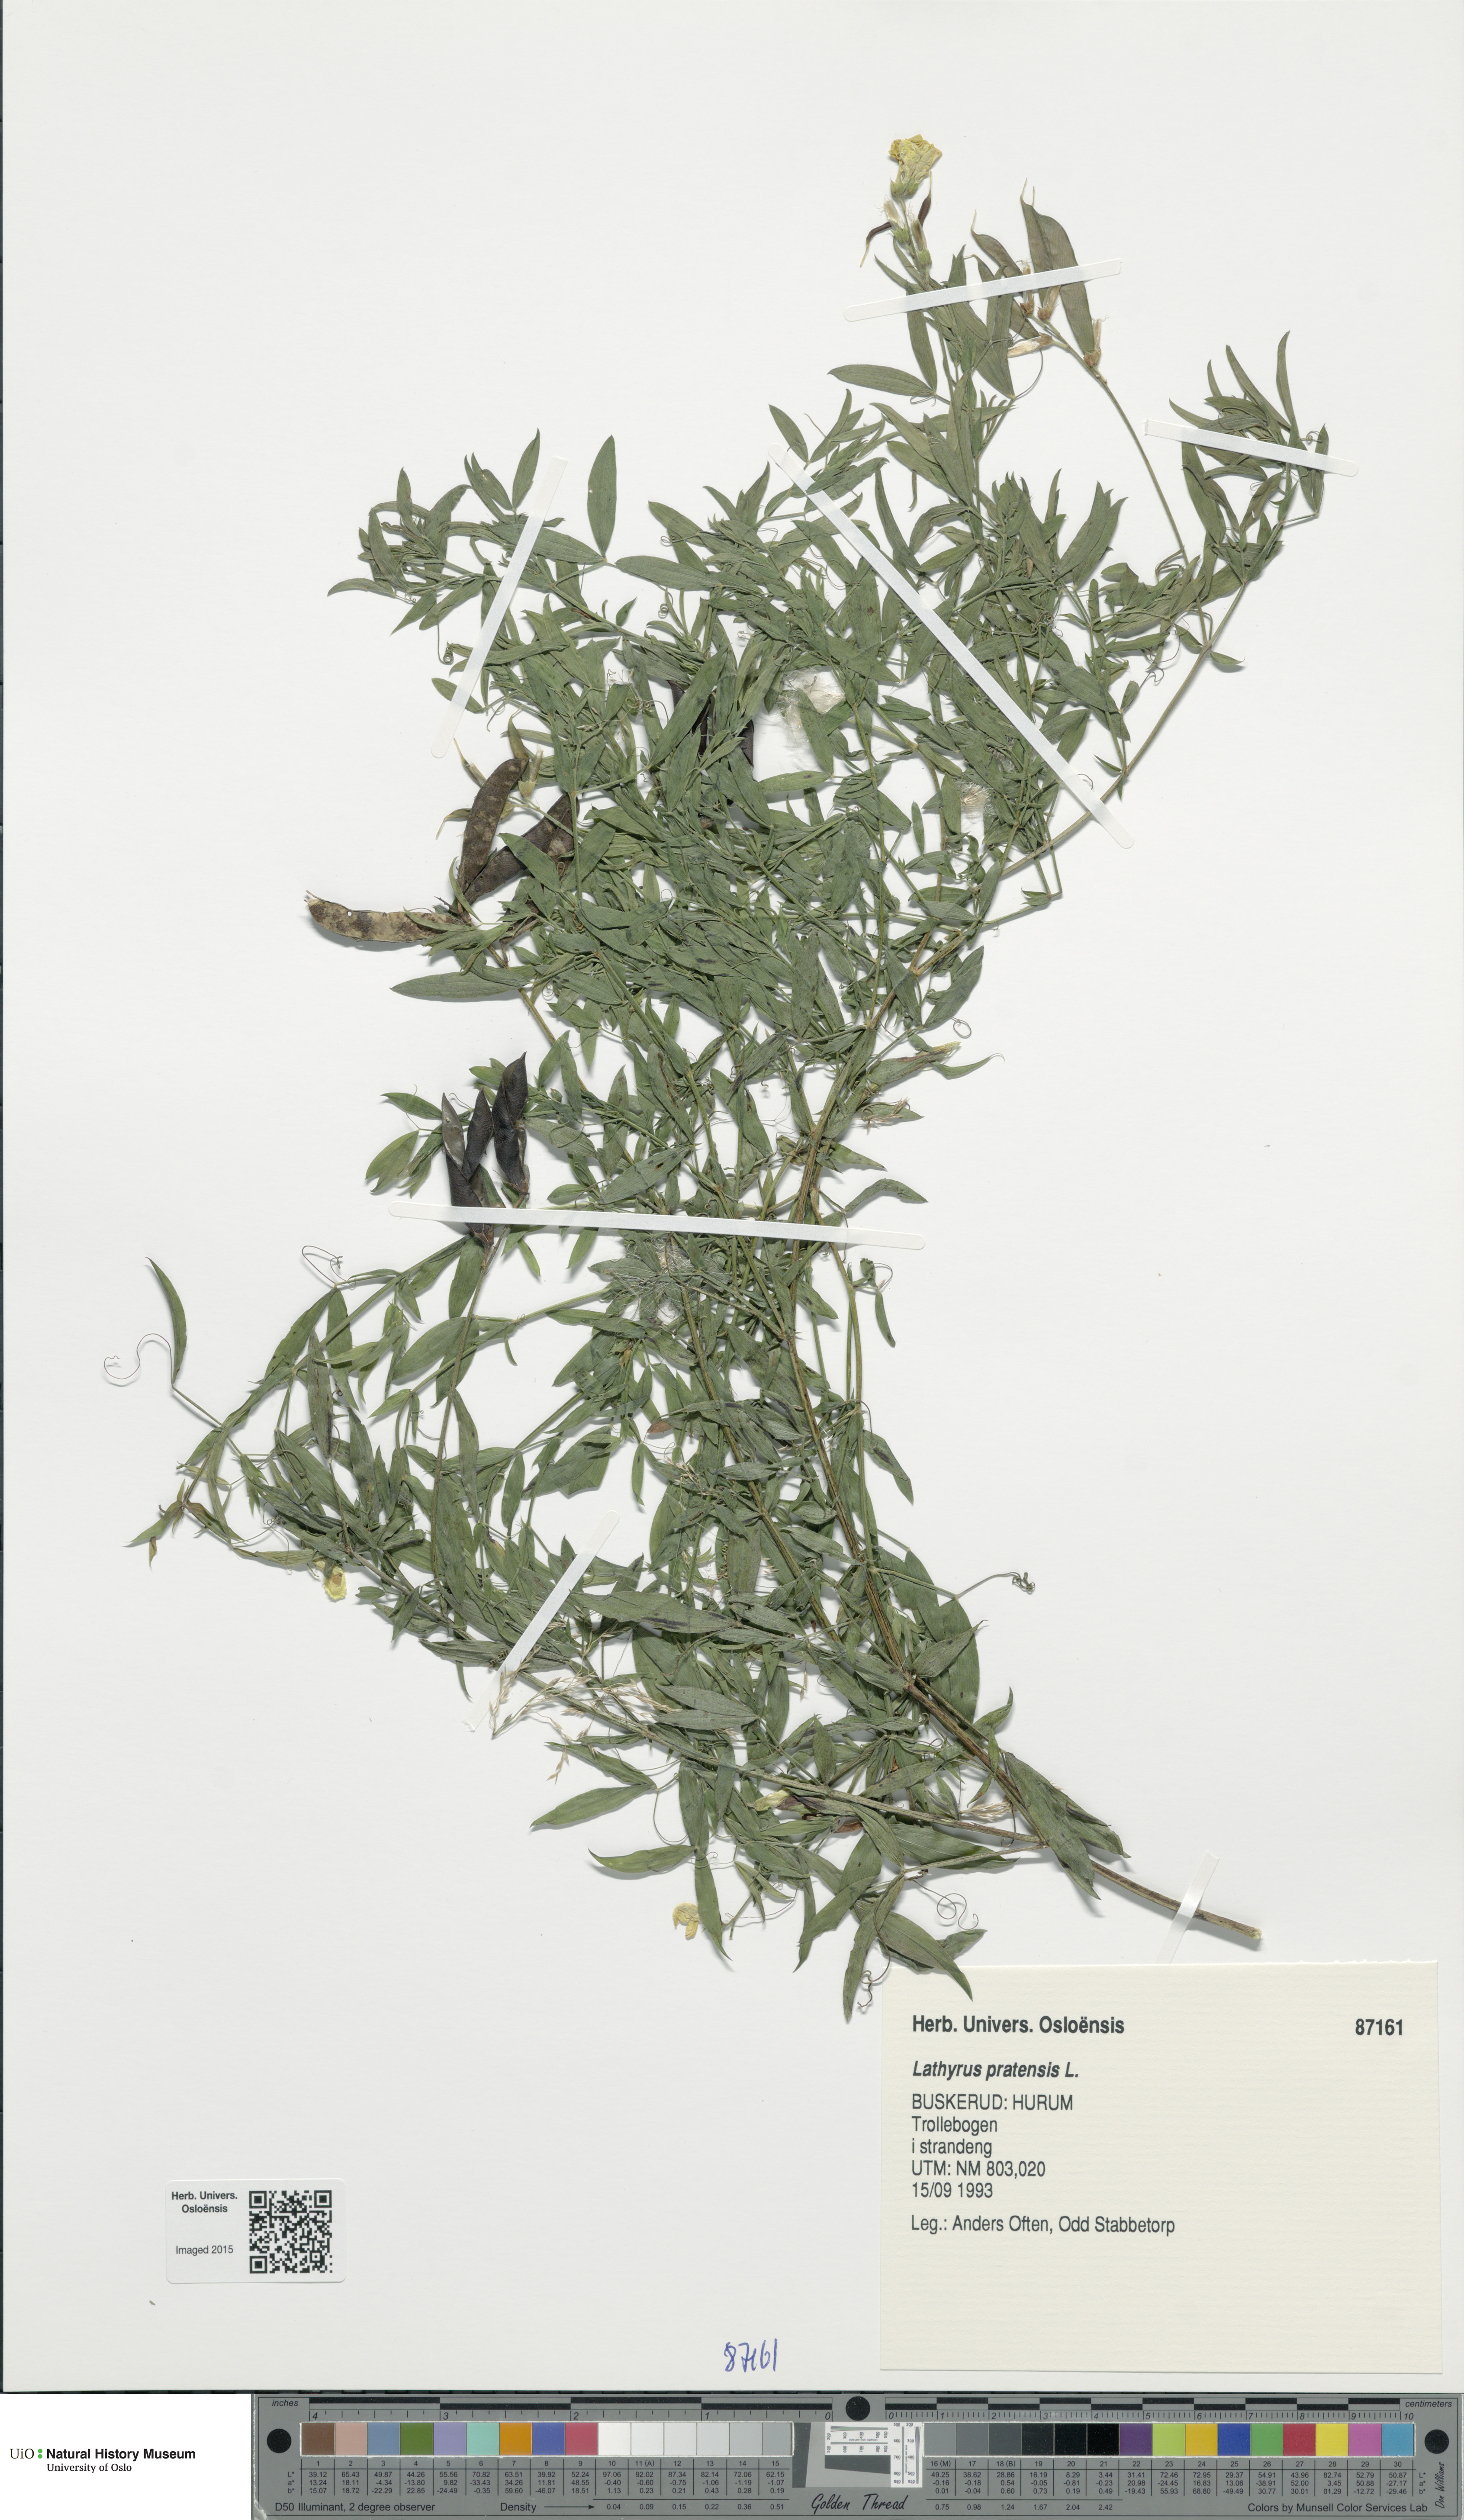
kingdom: Plantae
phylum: Tracheophyta
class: Magnoliopsida
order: Fabales
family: Fabaceae
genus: Lathyrus
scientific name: Lathyrus pratensis
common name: Meadow vetchling
